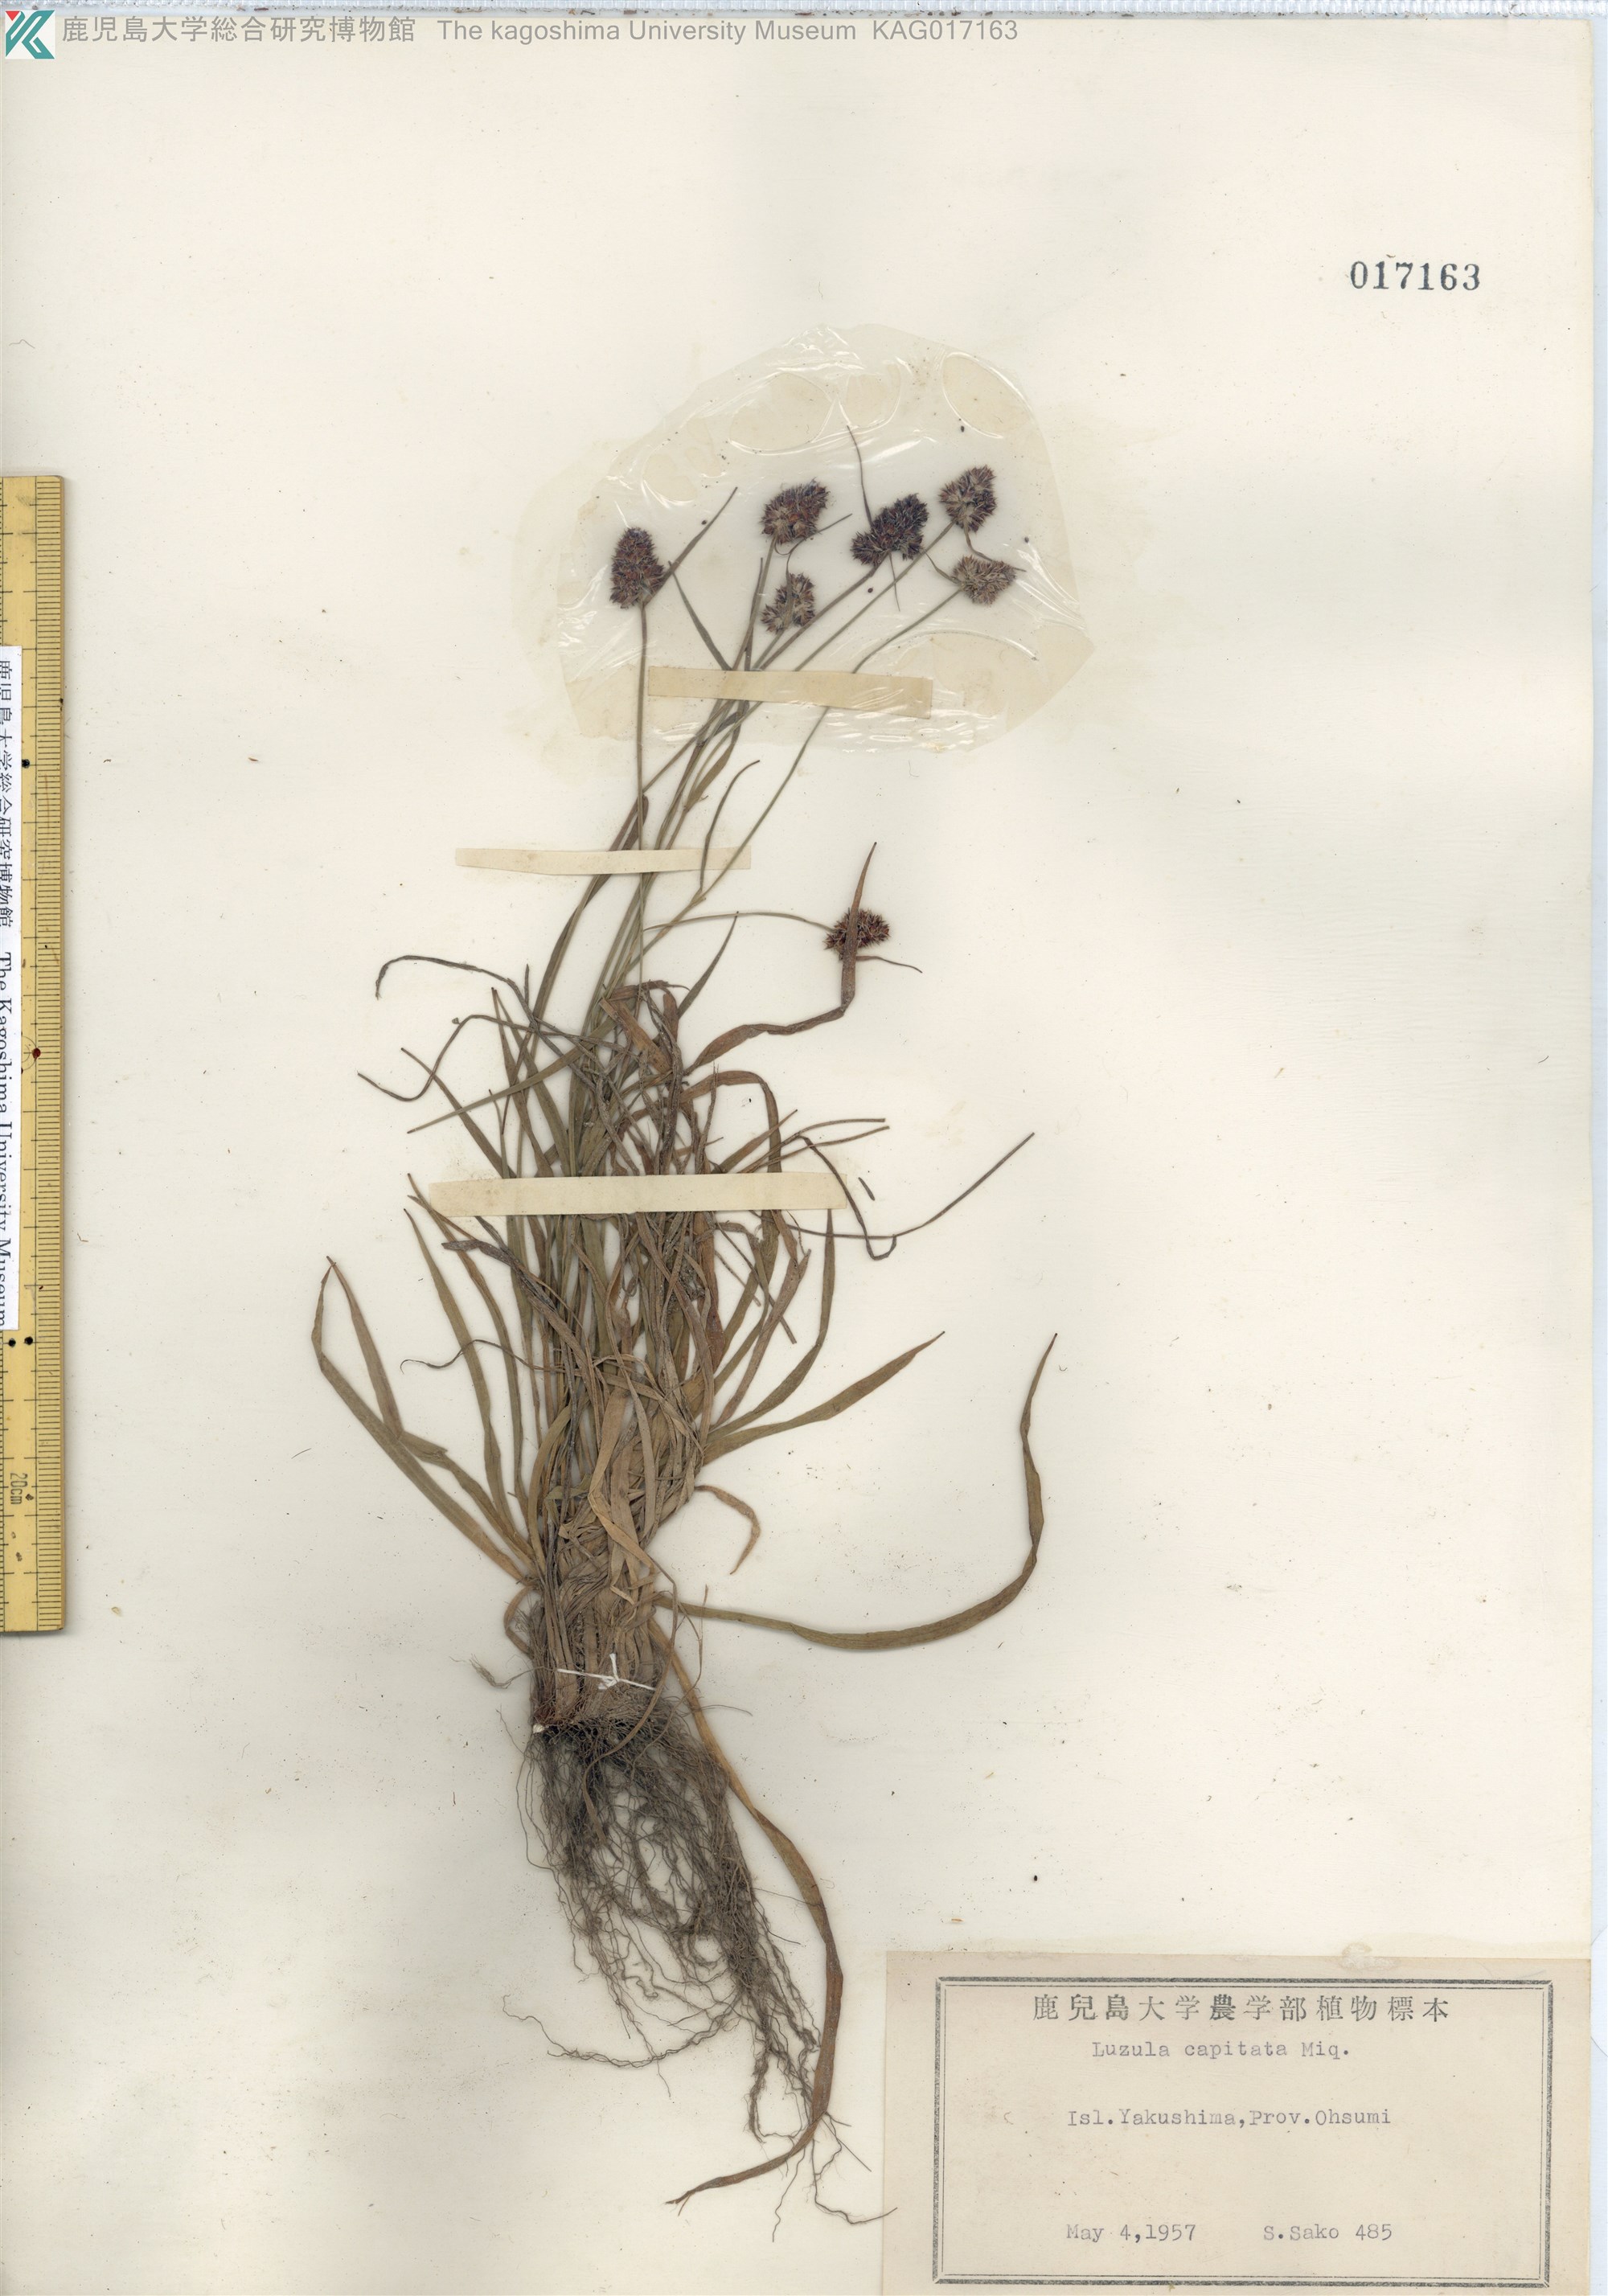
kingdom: Plantae
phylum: Tracheophyta
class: Liliopsida
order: Poales
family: Juncaceae
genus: Luzula
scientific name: Luzula capitata
